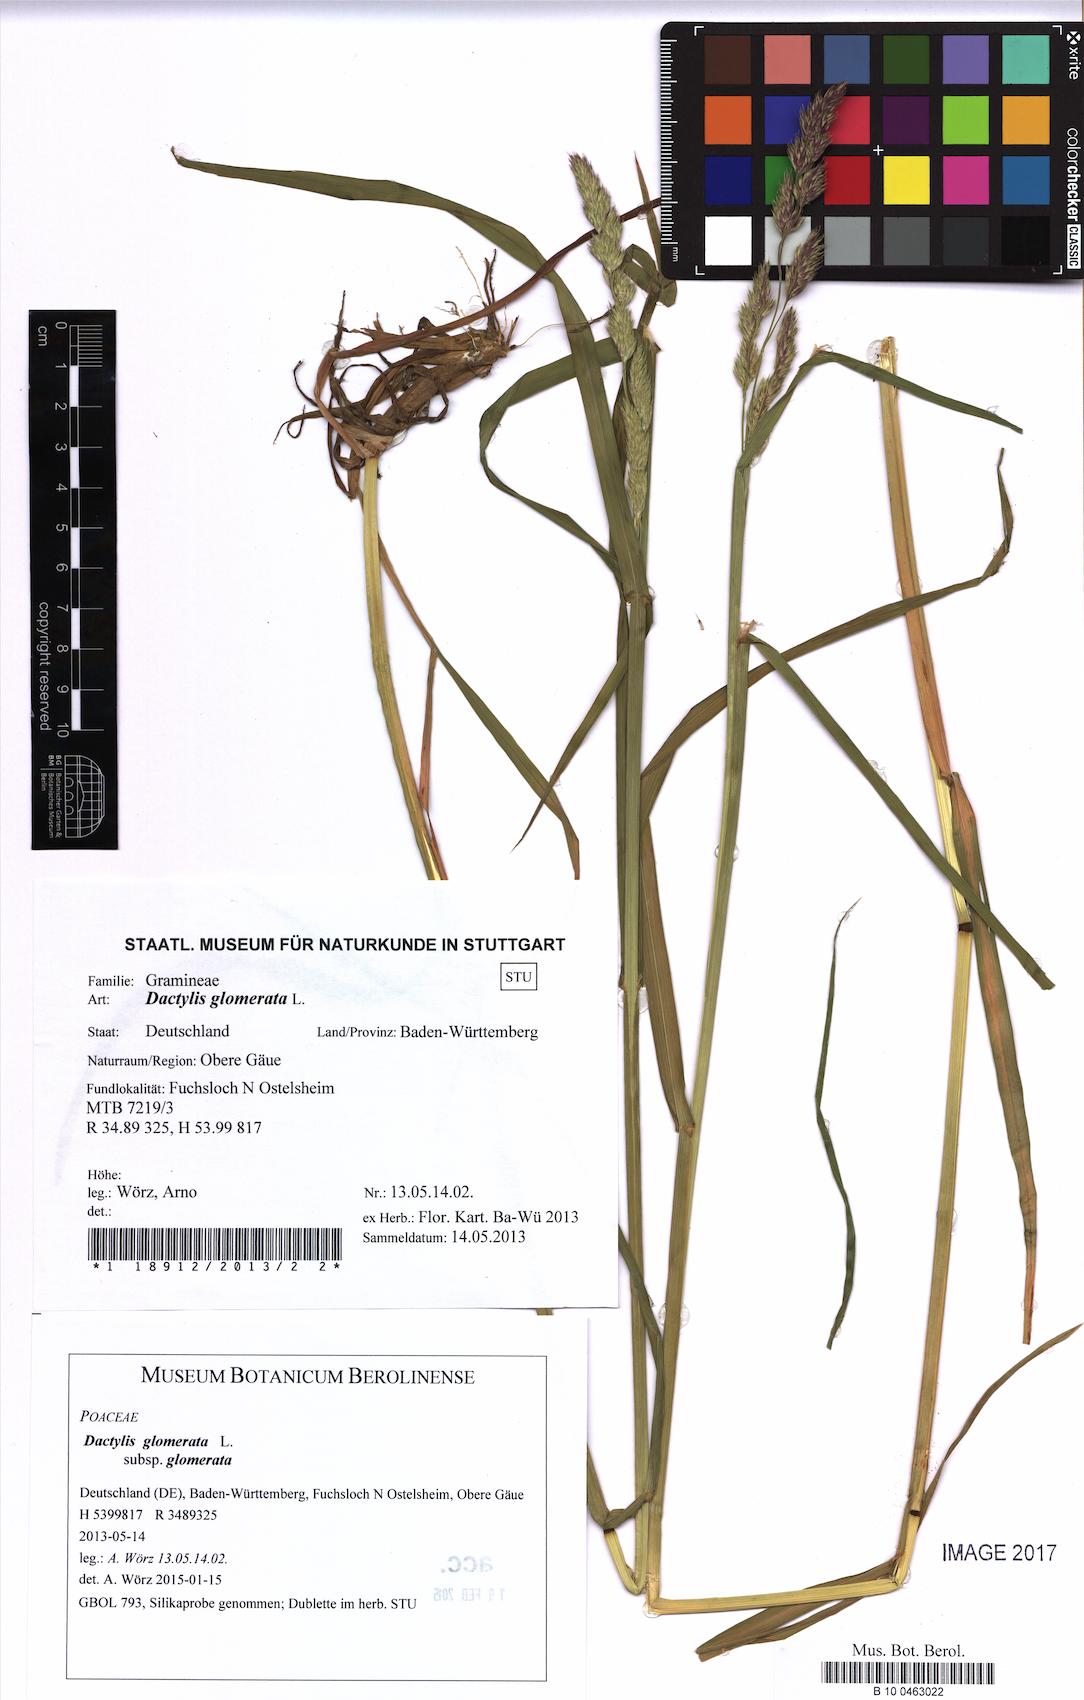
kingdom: Plantae
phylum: Tracheophyta
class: Liliopsida
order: Poales
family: Poaceae
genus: Dactylis
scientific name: Dactylis glomerata
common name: Orchardgrass
